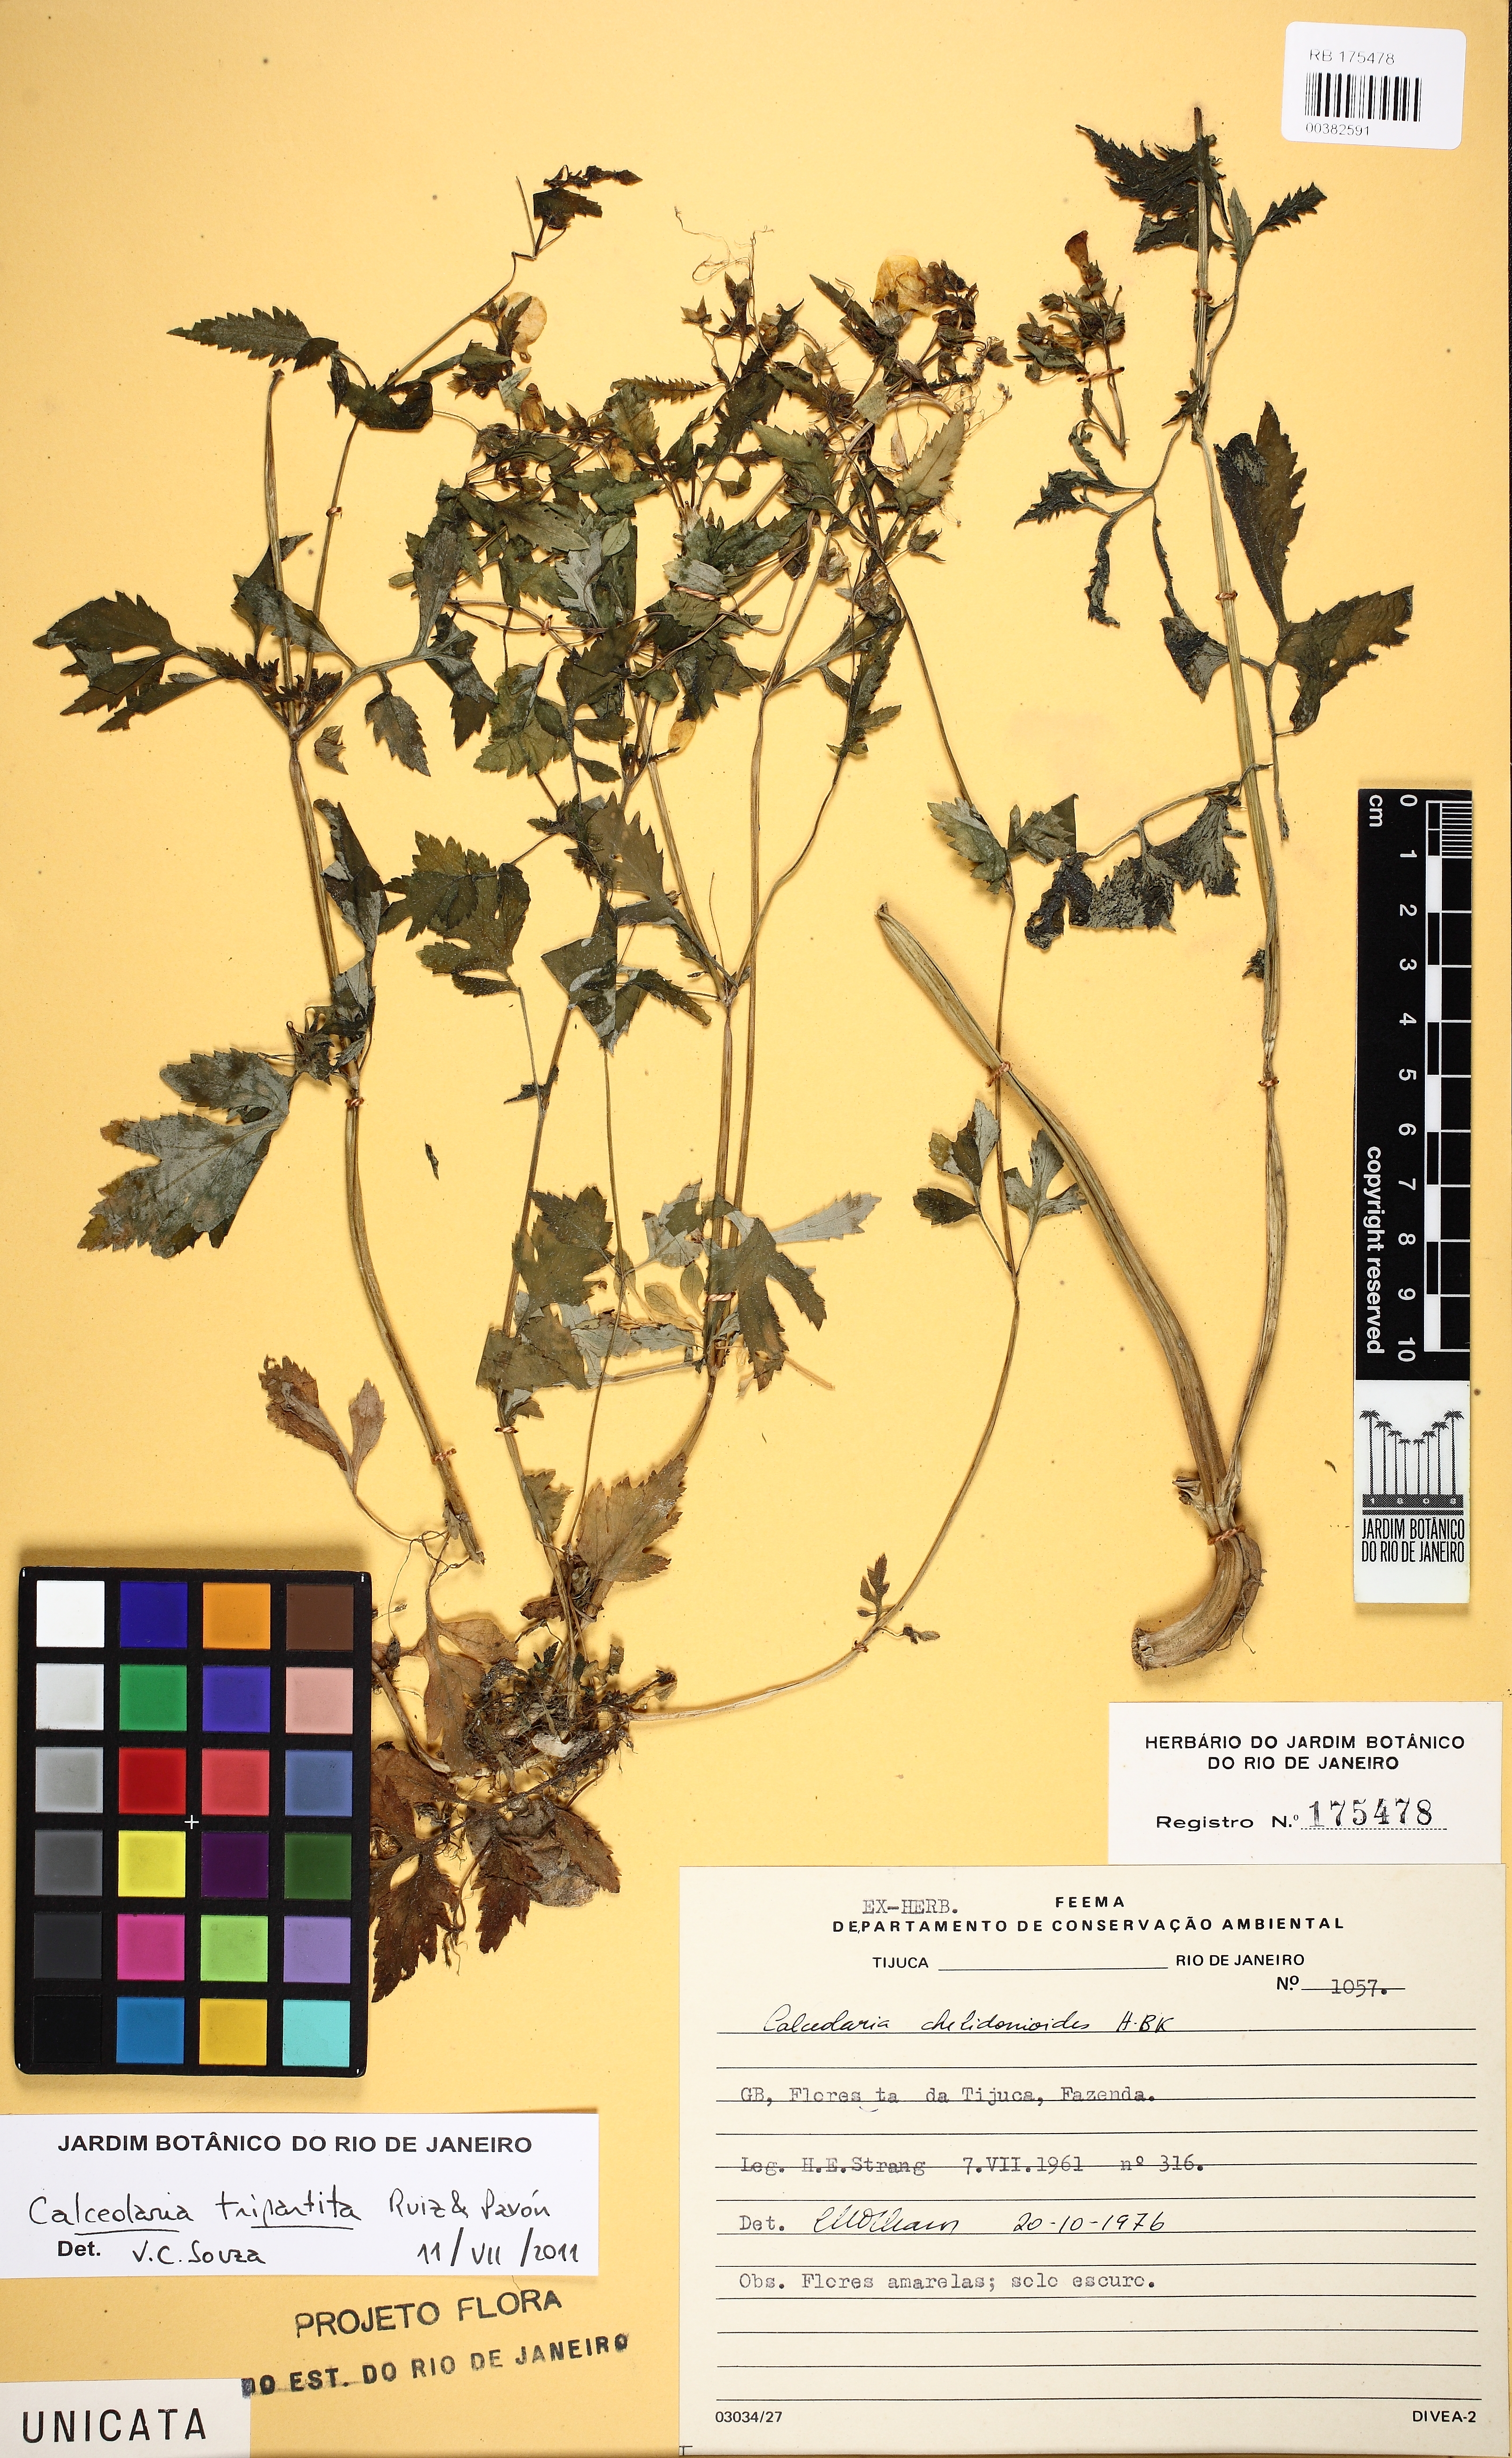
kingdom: Plantae
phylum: Tracheophyta
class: Magnoliopsida
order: Lamiales
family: Calceolariaceae
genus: Calceolaria
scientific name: Calceolaria tripartita
